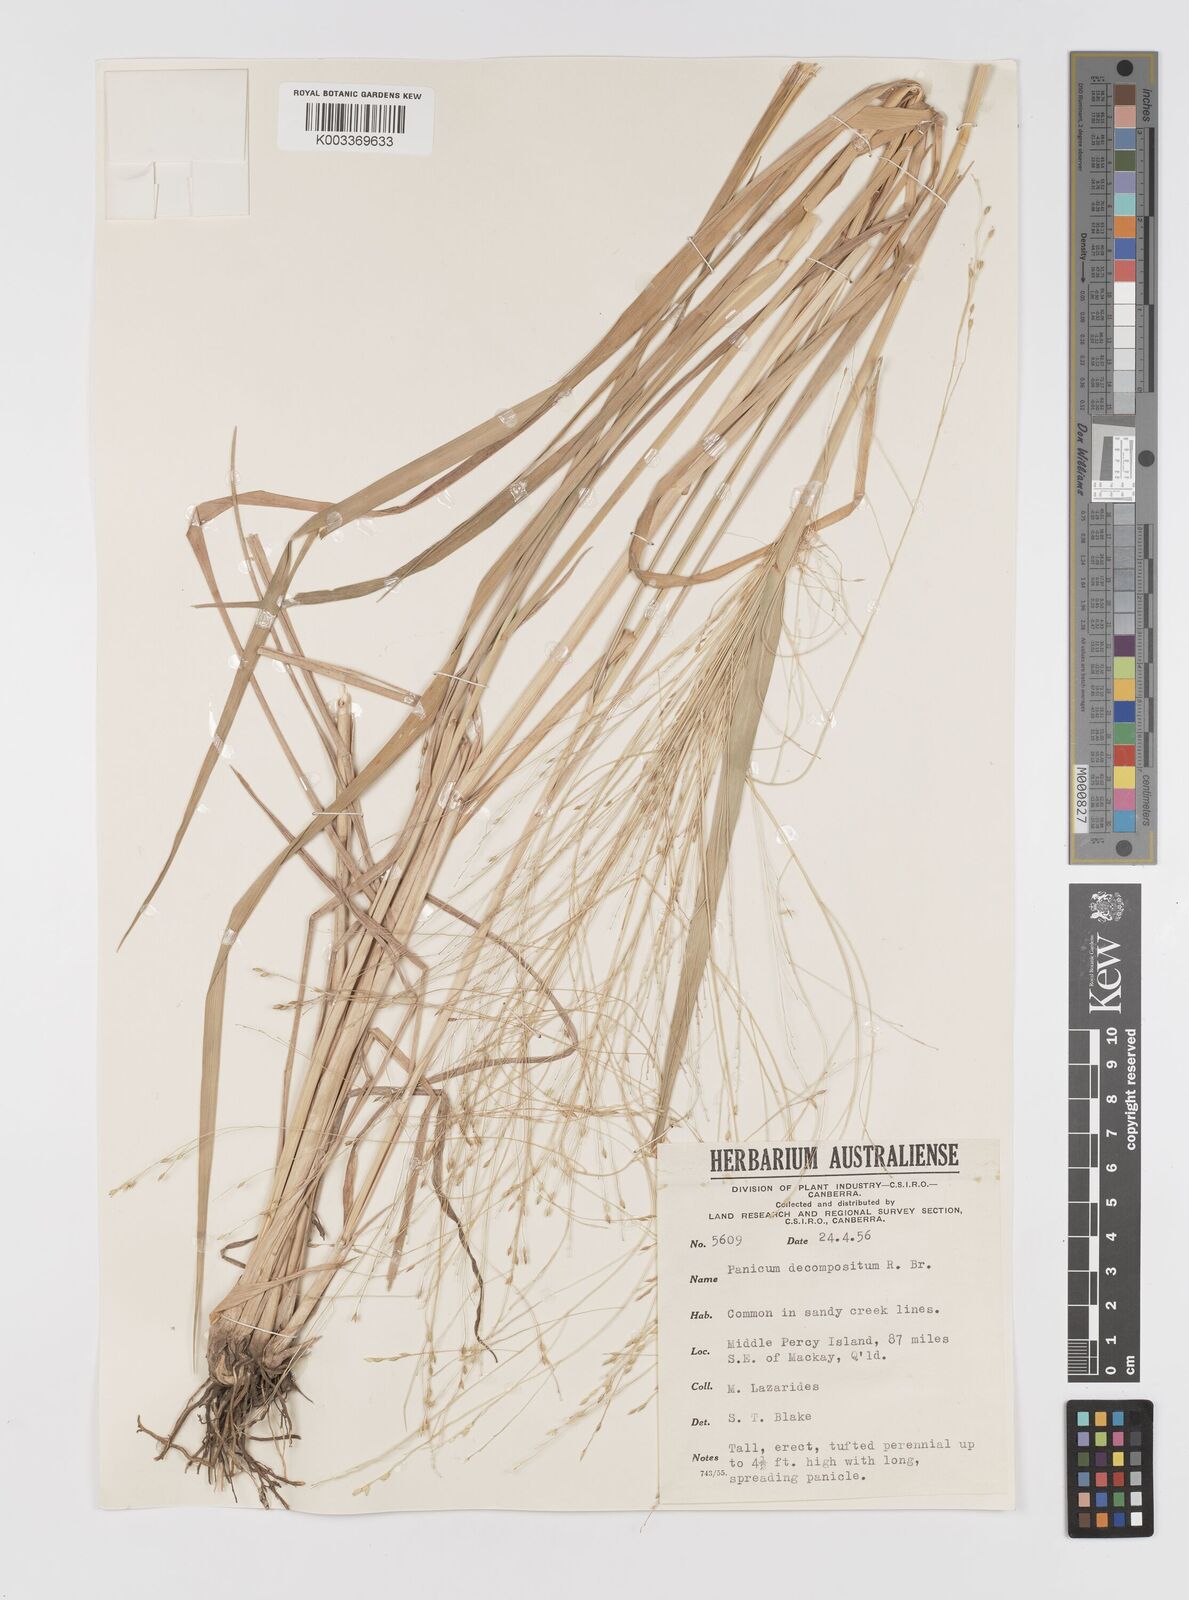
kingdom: Plantae
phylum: Tracheophyta
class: Liliopsida
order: Poales
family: Poaceae
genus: Panicum
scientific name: Panicum decompositum
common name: Australian millet
